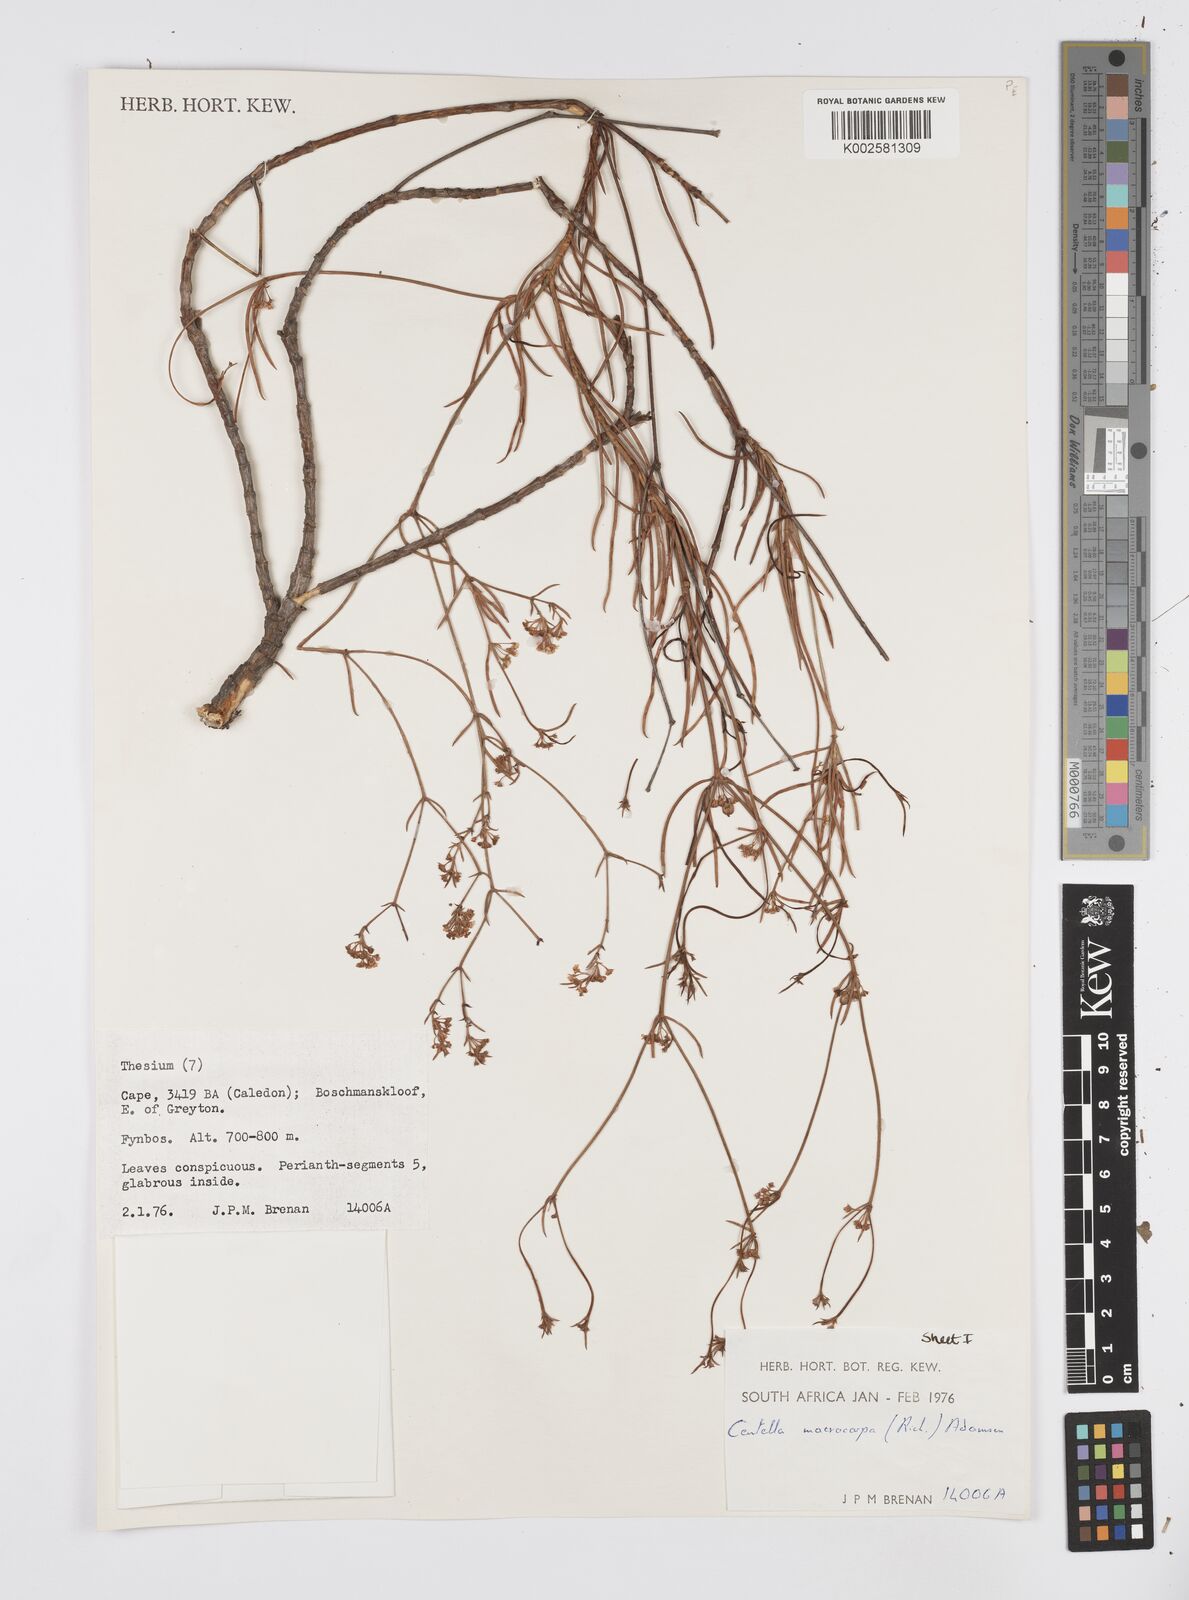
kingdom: Plantae
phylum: Tracheophyta
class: Magnoliopsida
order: Apiales
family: Apiaceae
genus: Centella
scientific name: Centella macrocarpa
